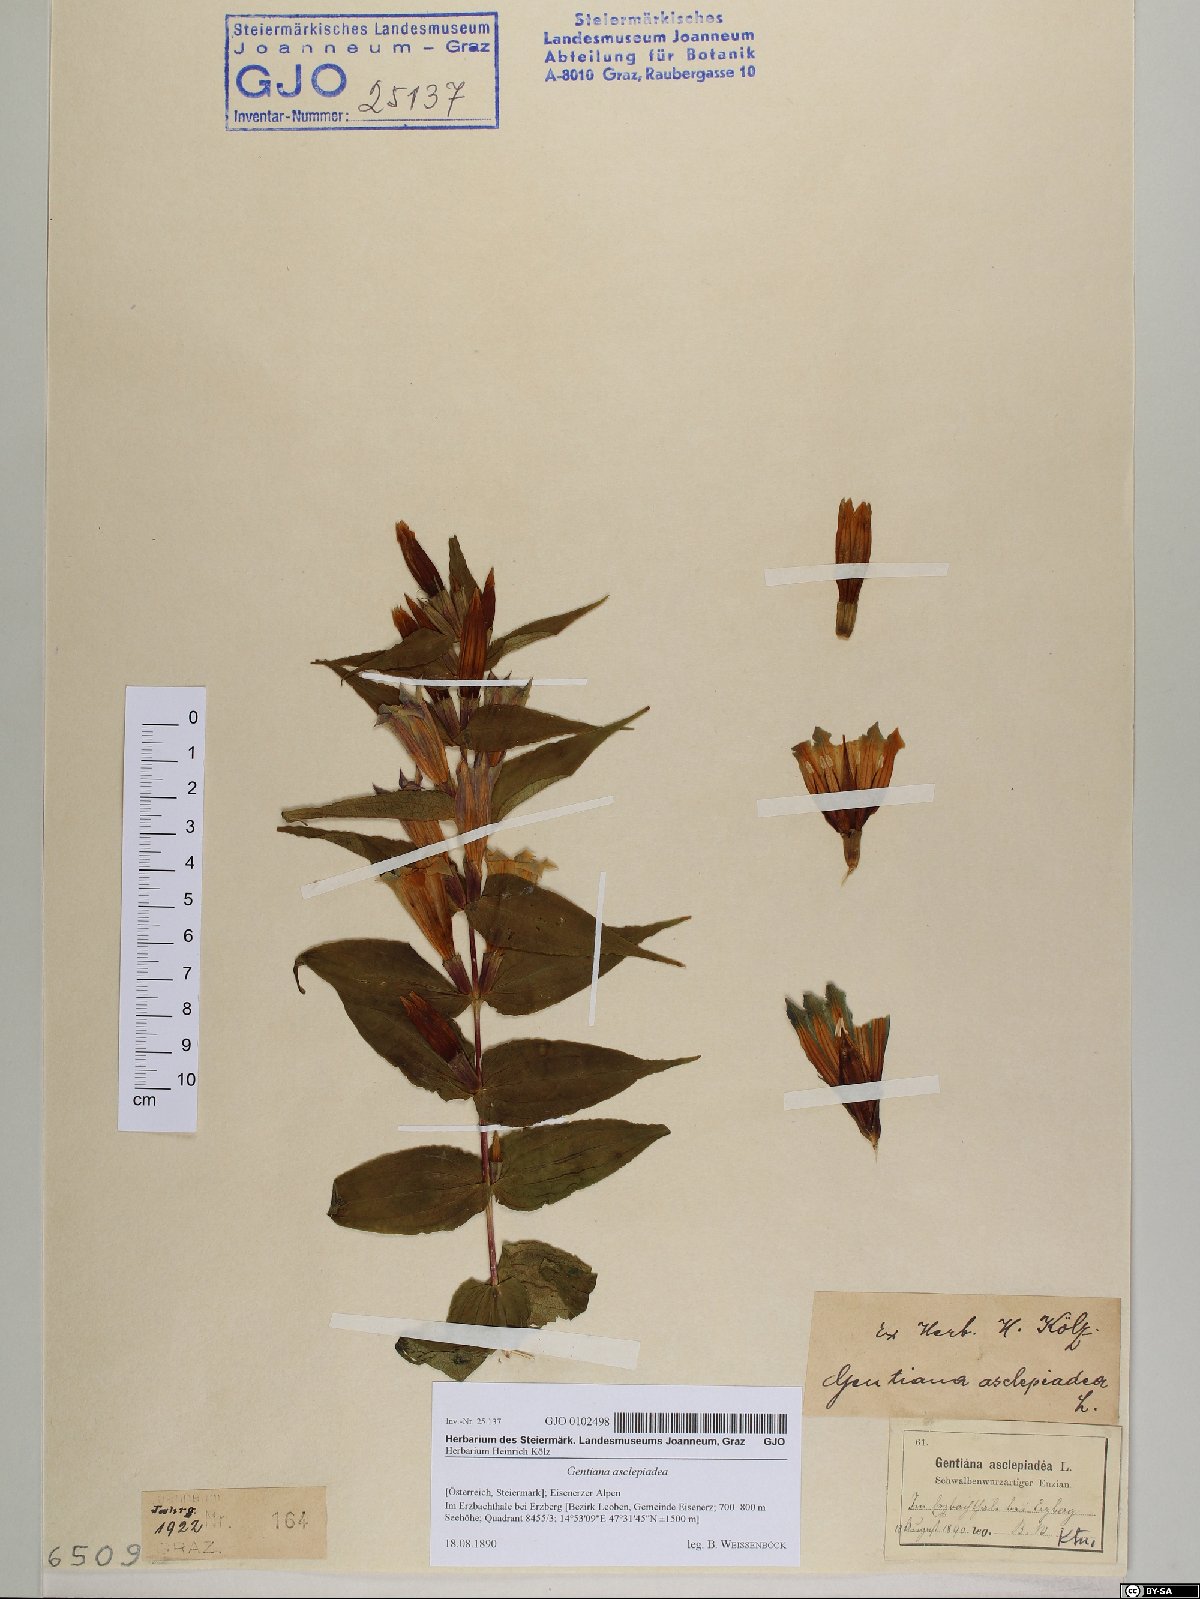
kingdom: Plantae
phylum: Tracheophyta
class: Magnoliopsida
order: Gentianales
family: Gentianaceae
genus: Gentiana
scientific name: Gentiana asclepiadea
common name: Willow gentian
